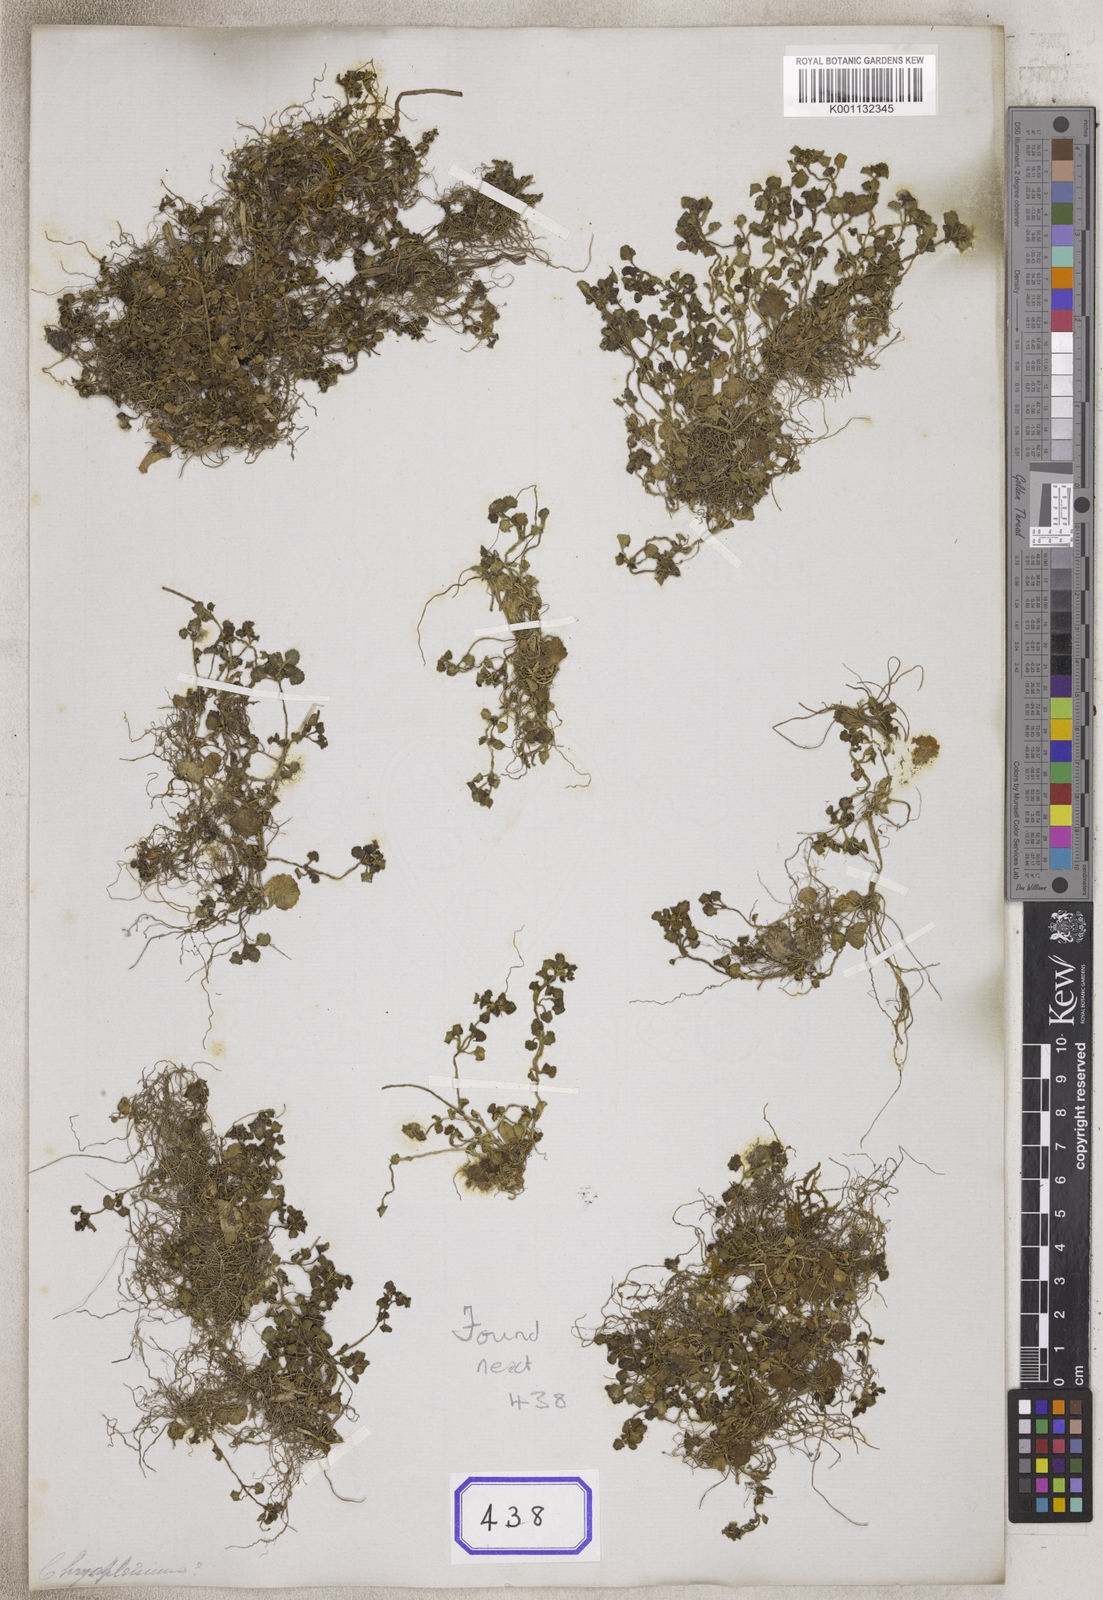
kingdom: Plantae
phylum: Tracheophyta
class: Magnoliopsida
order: Saxifragales
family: Saxifragaceae
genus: Chrysosplenium
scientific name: Chrysosplenium
